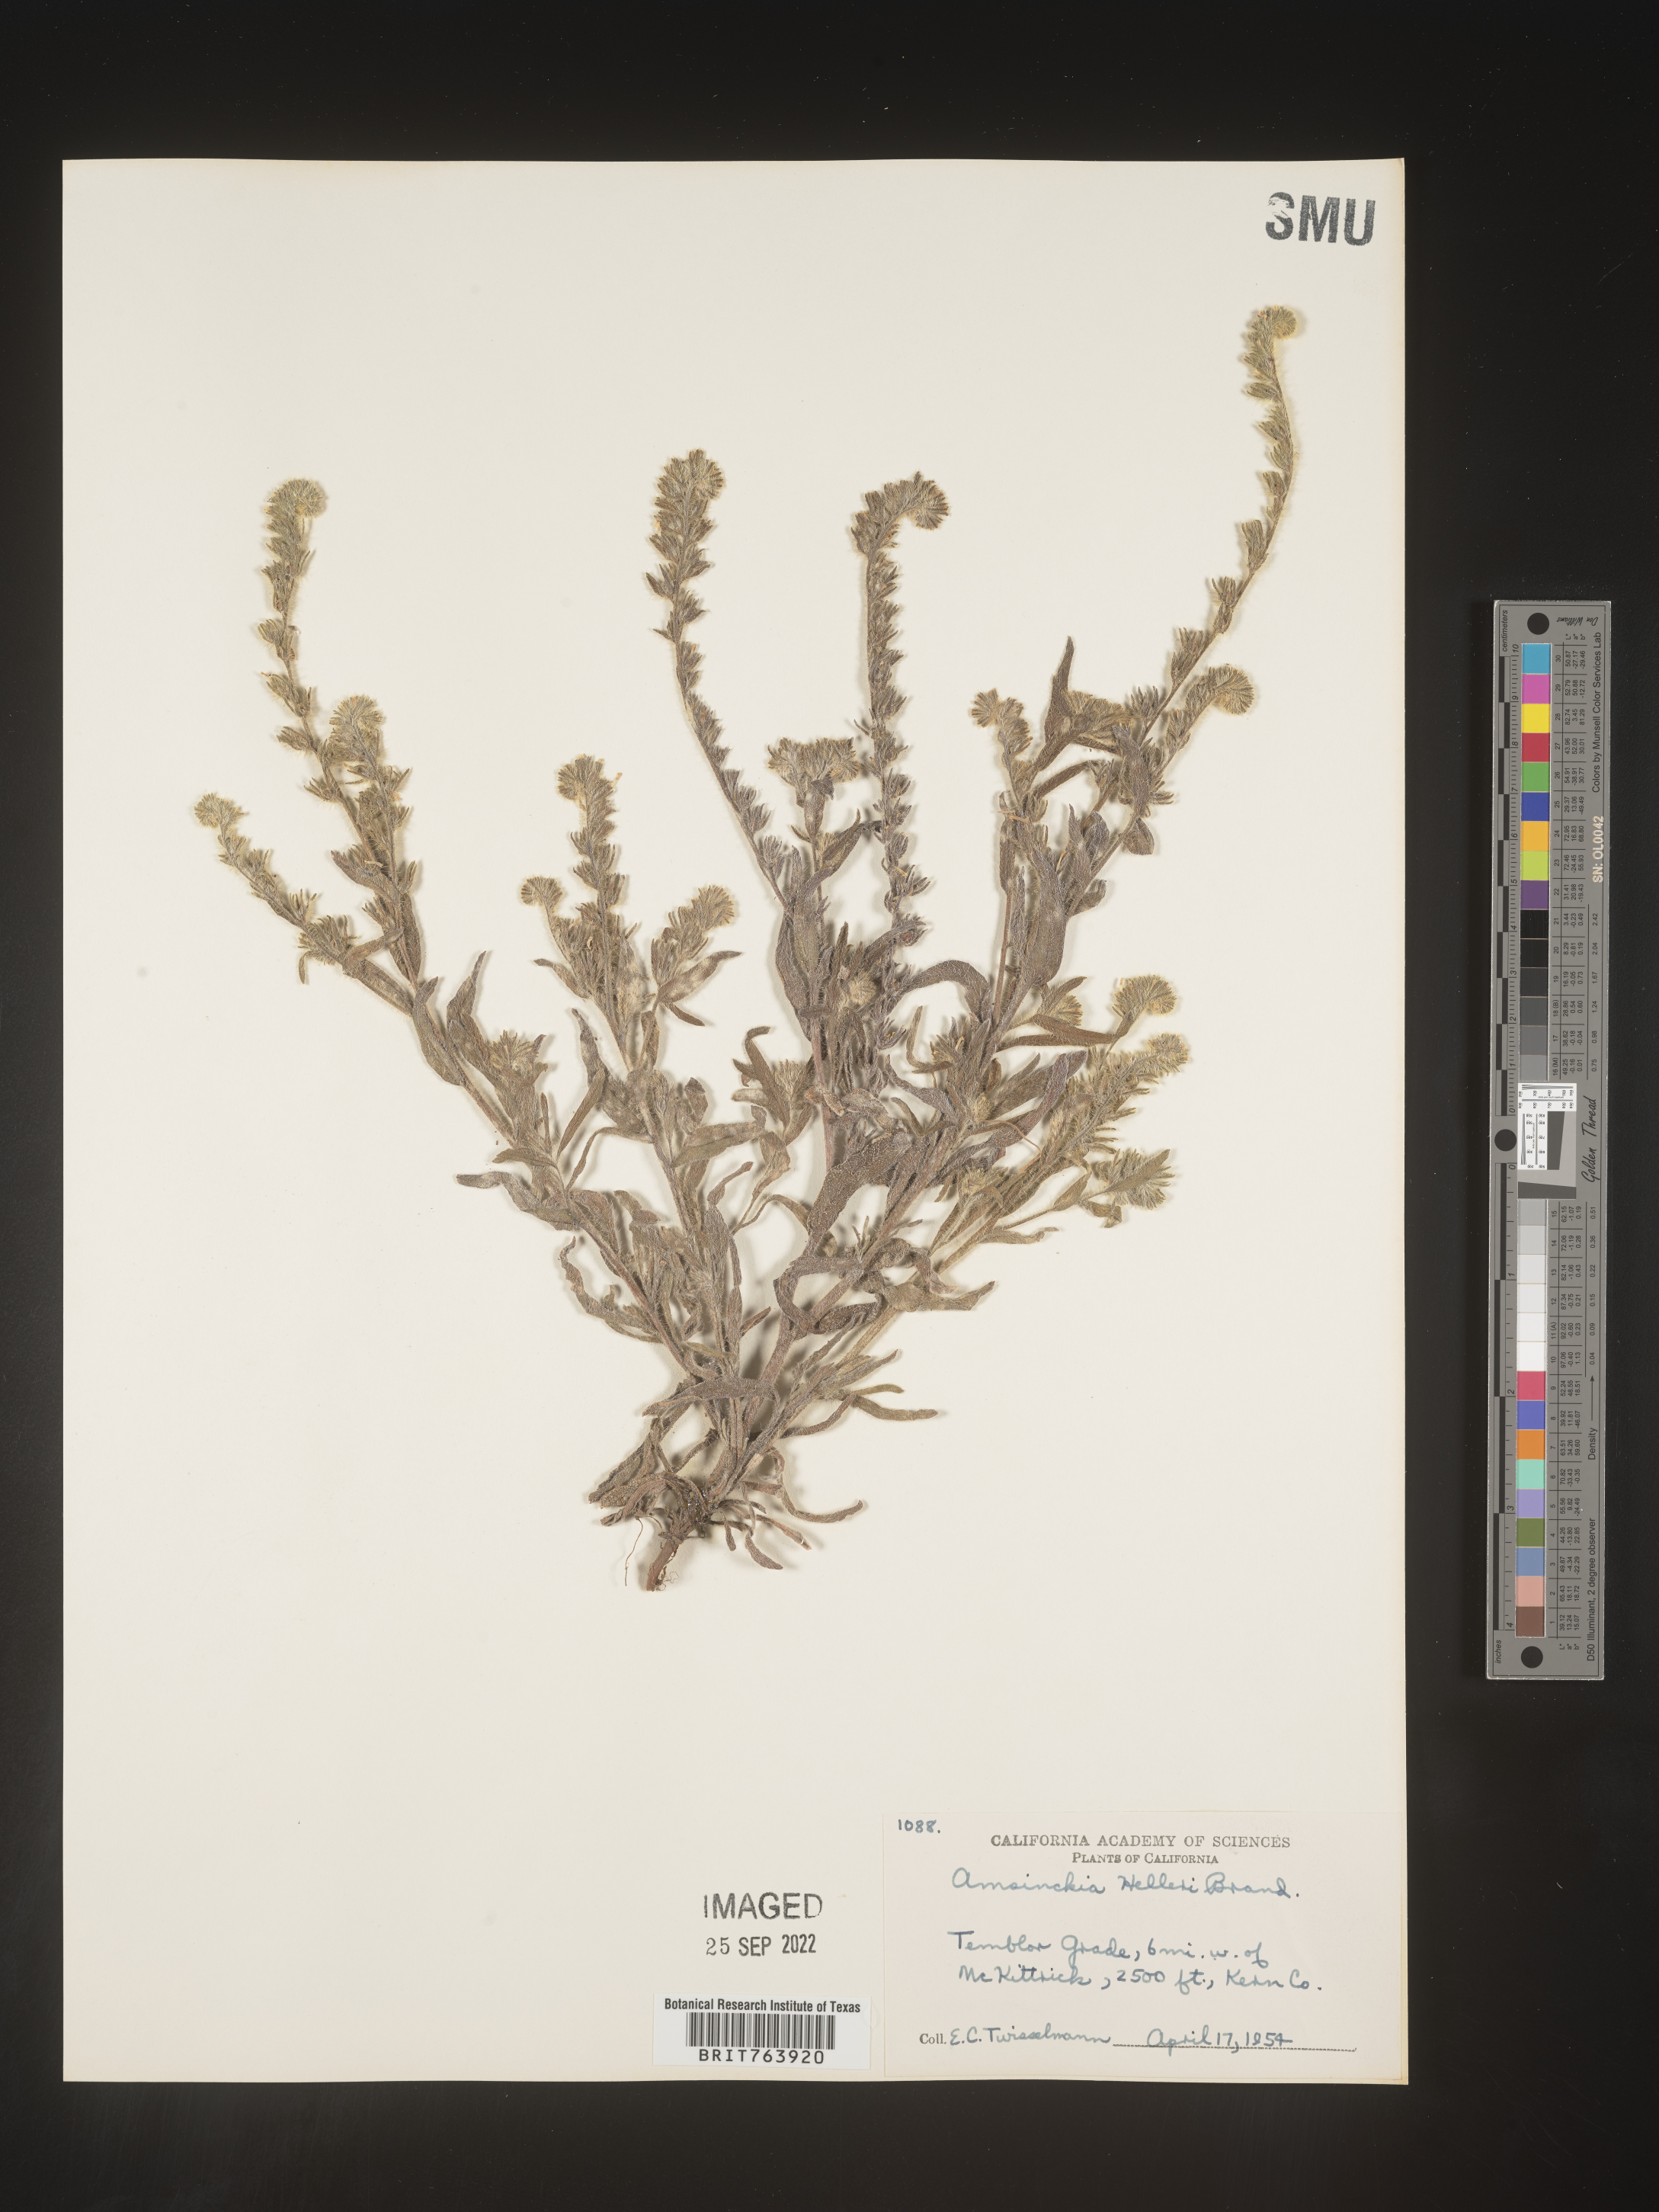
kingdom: Plantae
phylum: Tracheophyta
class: Magnoliopsida
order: Boraginales
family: Boraginaceae
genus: Amsinckia
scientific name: Amsinckia
